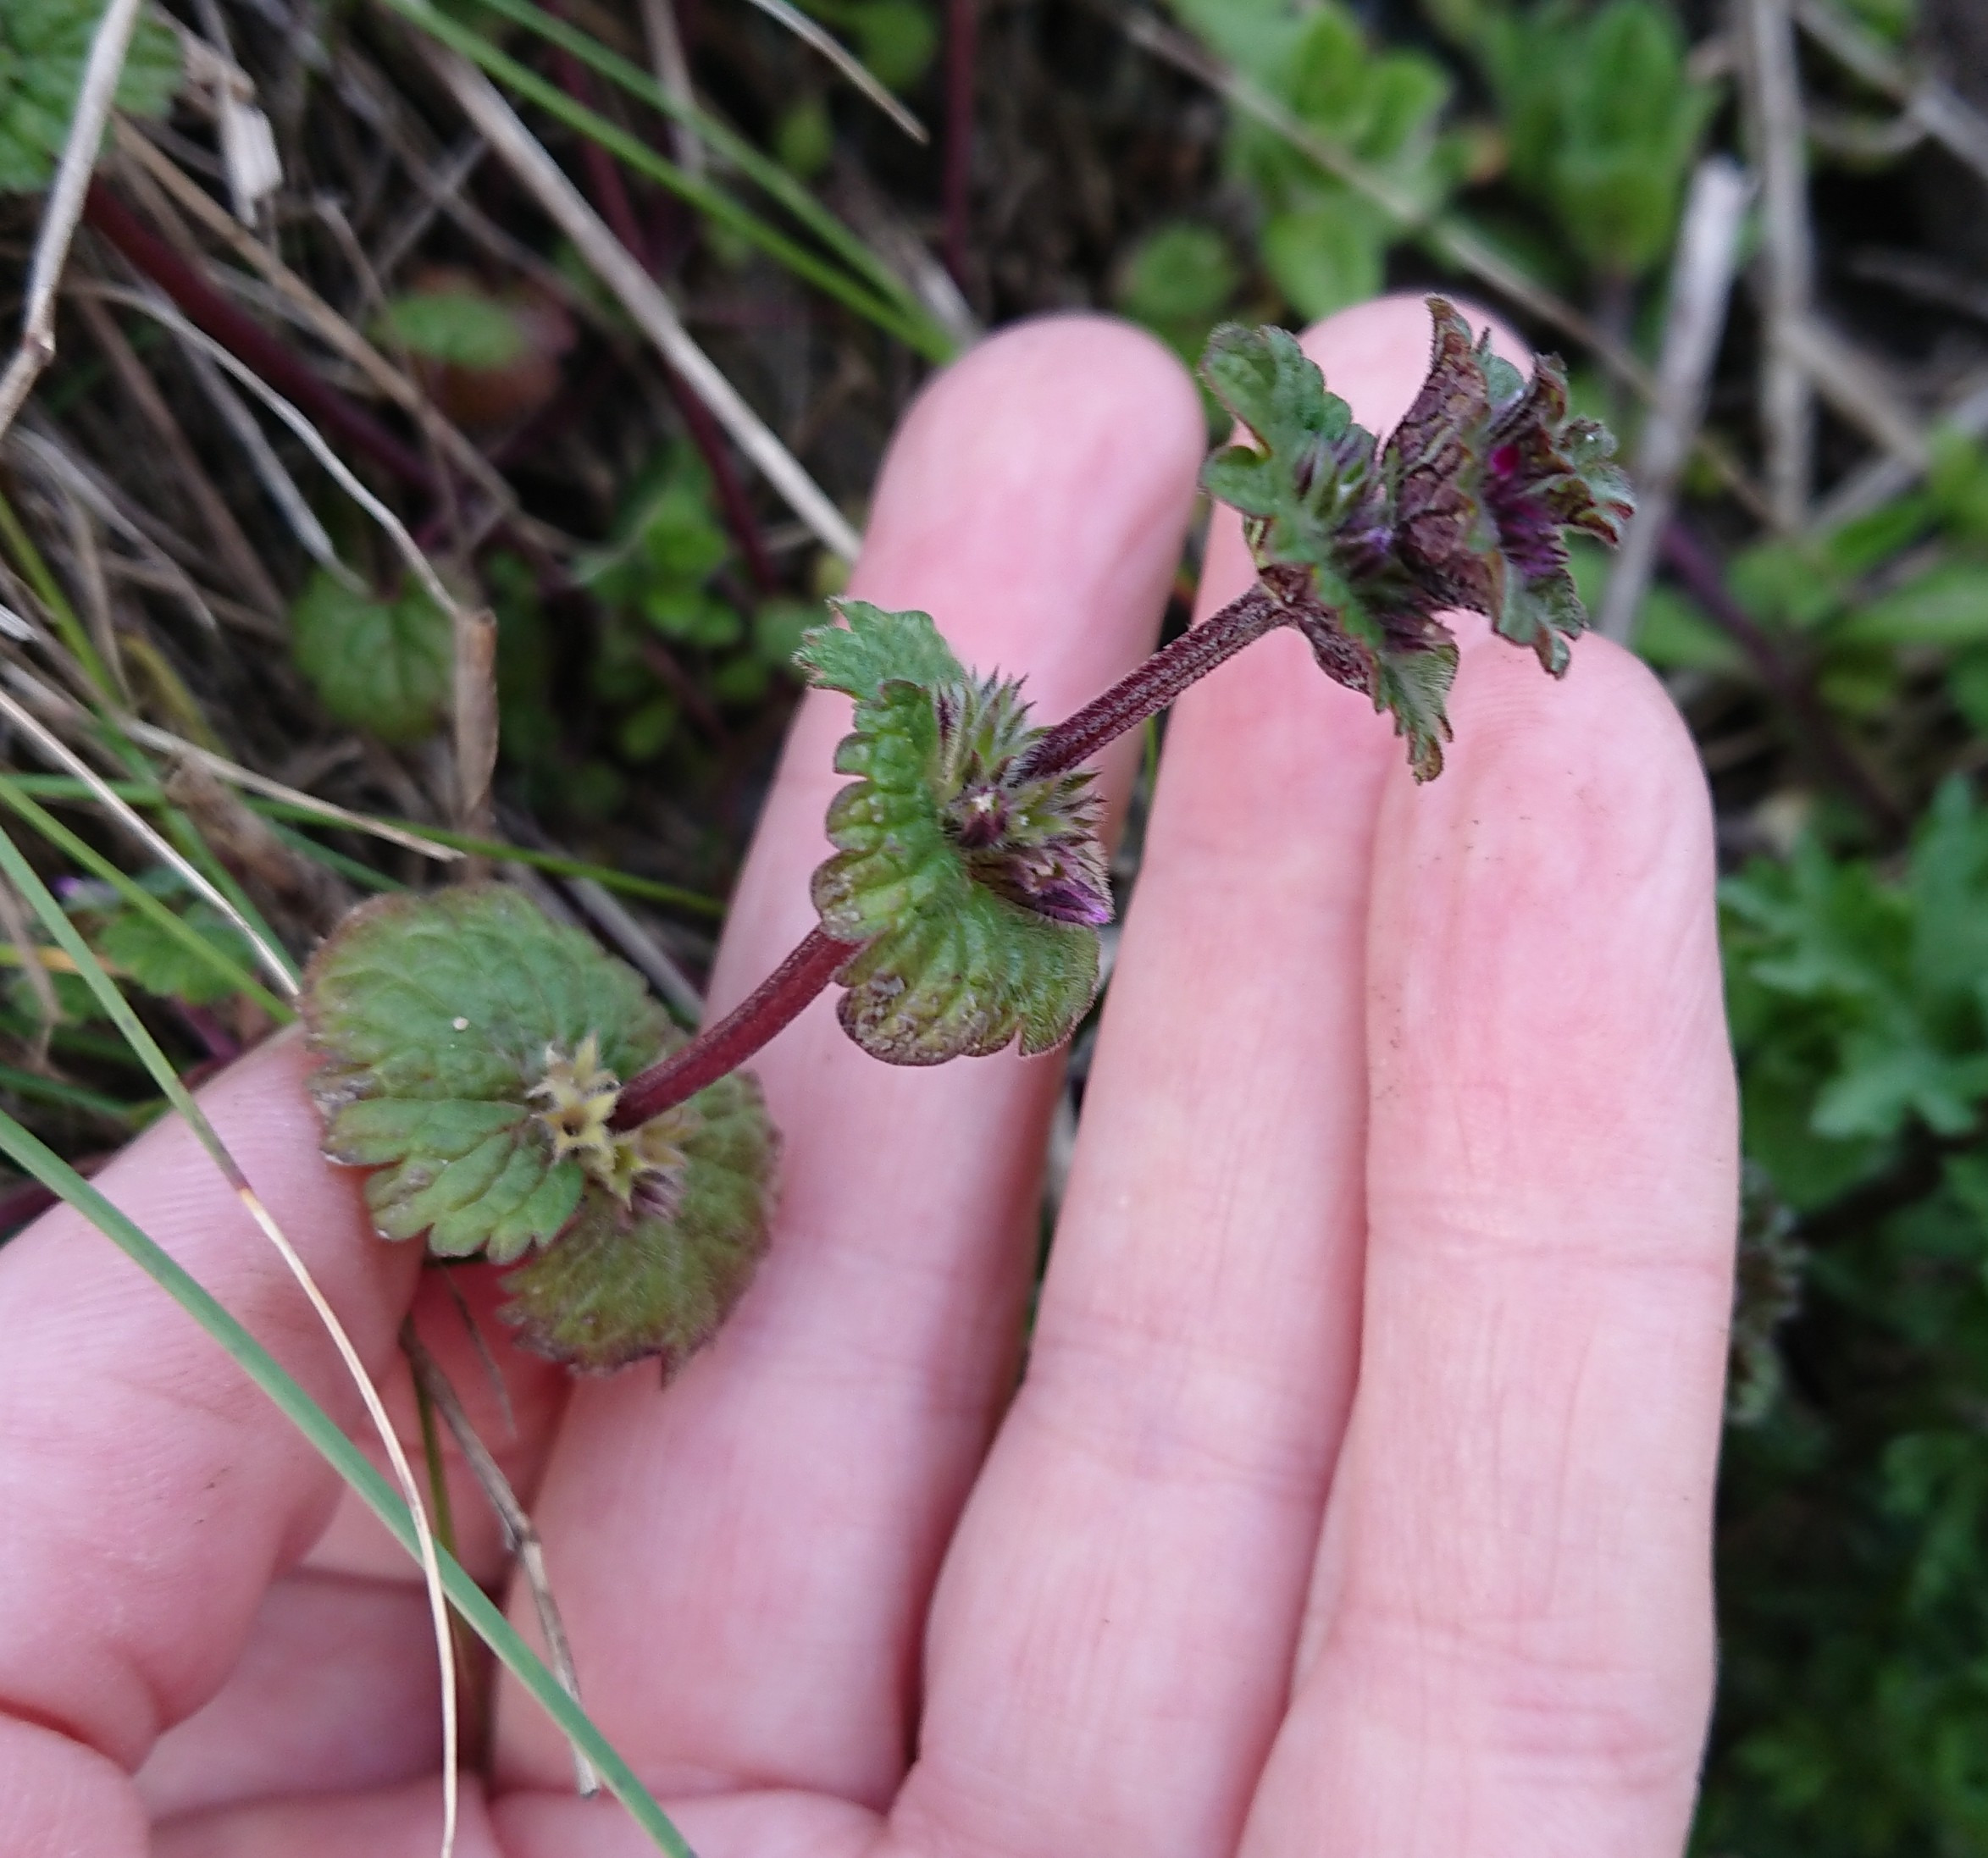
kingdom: Plantae
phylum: Tracheophyta
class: Magnoliopsida
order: Lamiales
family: Lamiaceae
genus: Lamium
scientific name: Lamium amplexicaule
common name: Liden tvetand
